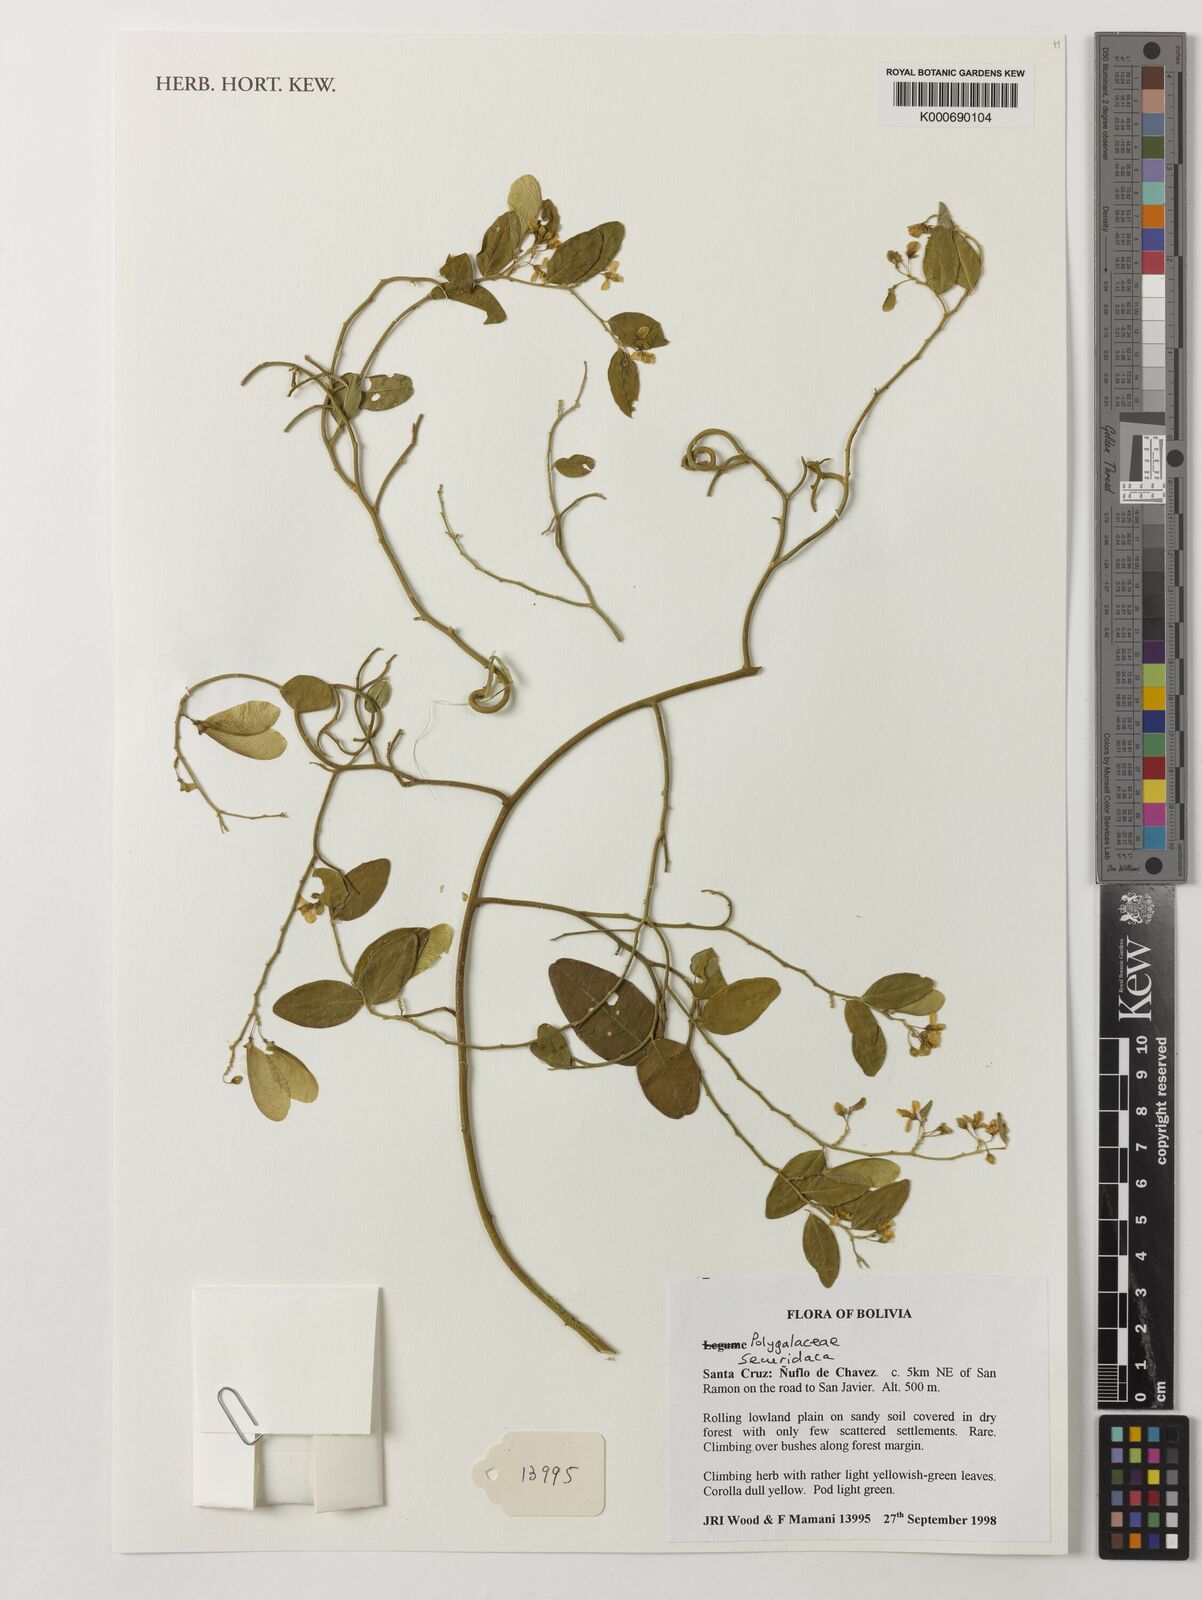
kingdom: Plantae
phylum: Tracheophyta
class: Magnoliopsida
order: Fabales
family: Polygalaceae
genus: Securidaca
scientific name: Securidaca
